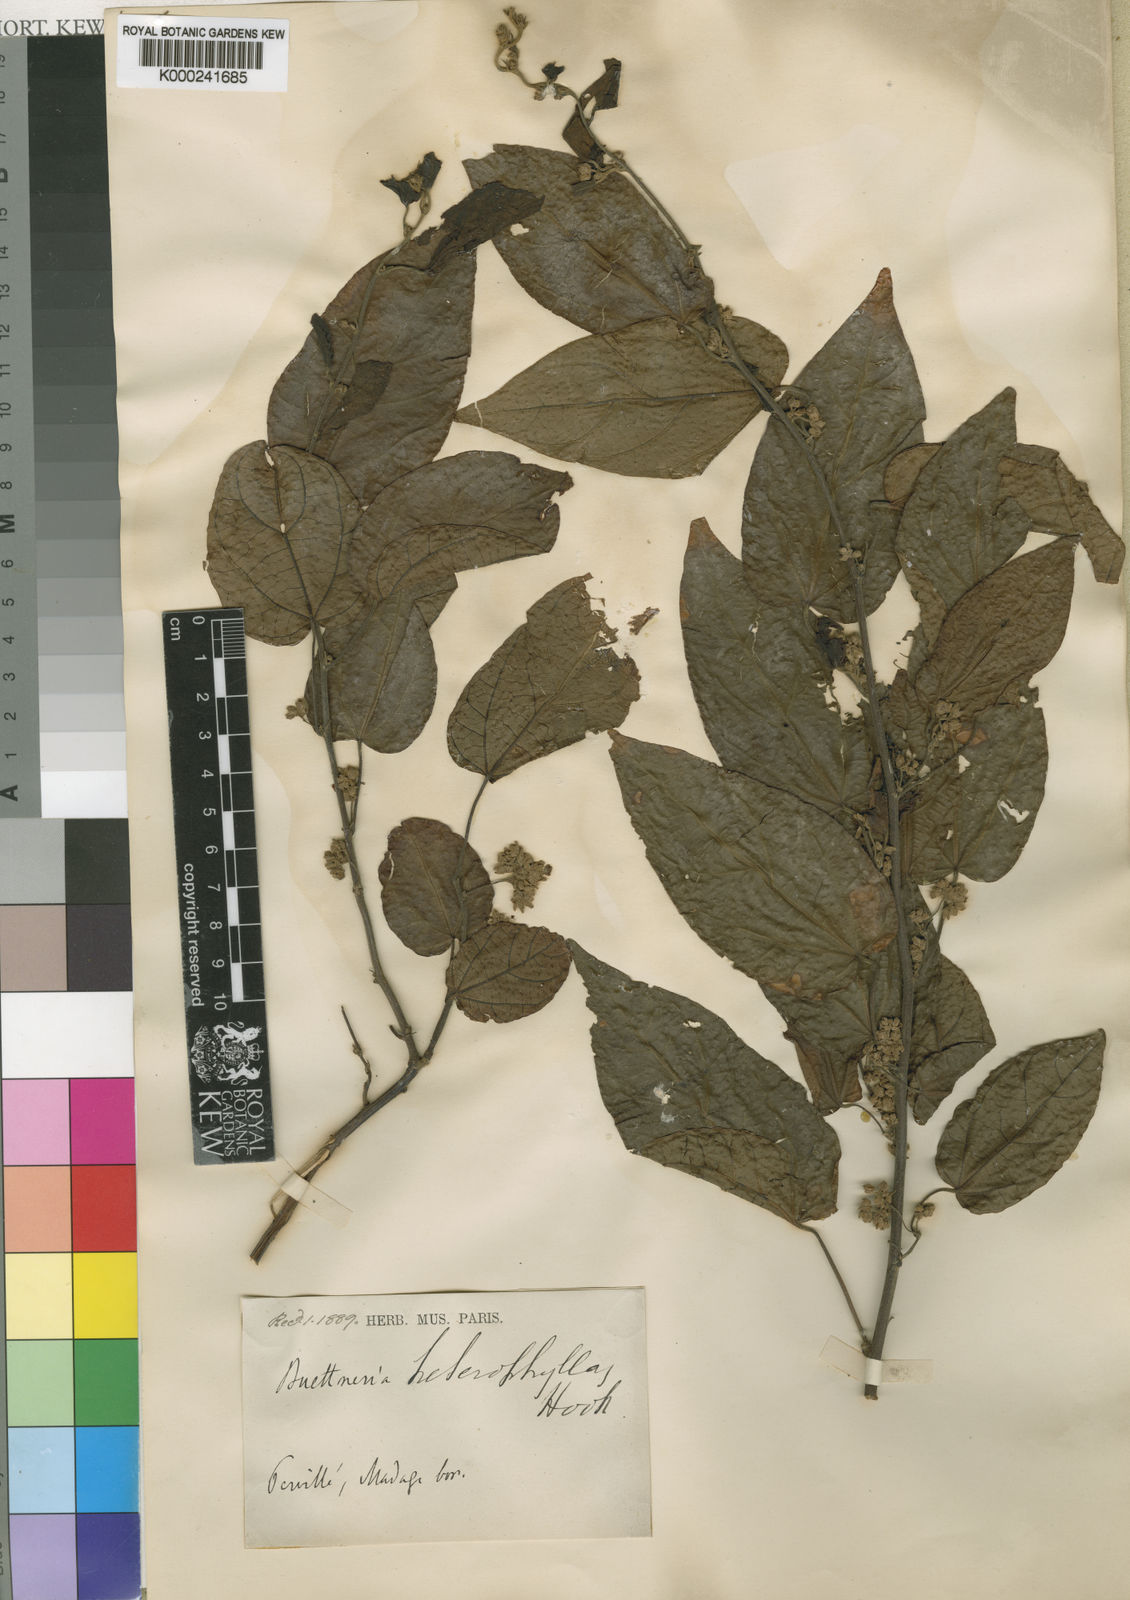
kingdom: Plantae
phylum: Tracheophyta
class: Magnoliopsida
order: Malvales
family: Malvaceae
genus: Byttneria
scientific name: Byttneria vitifolia
